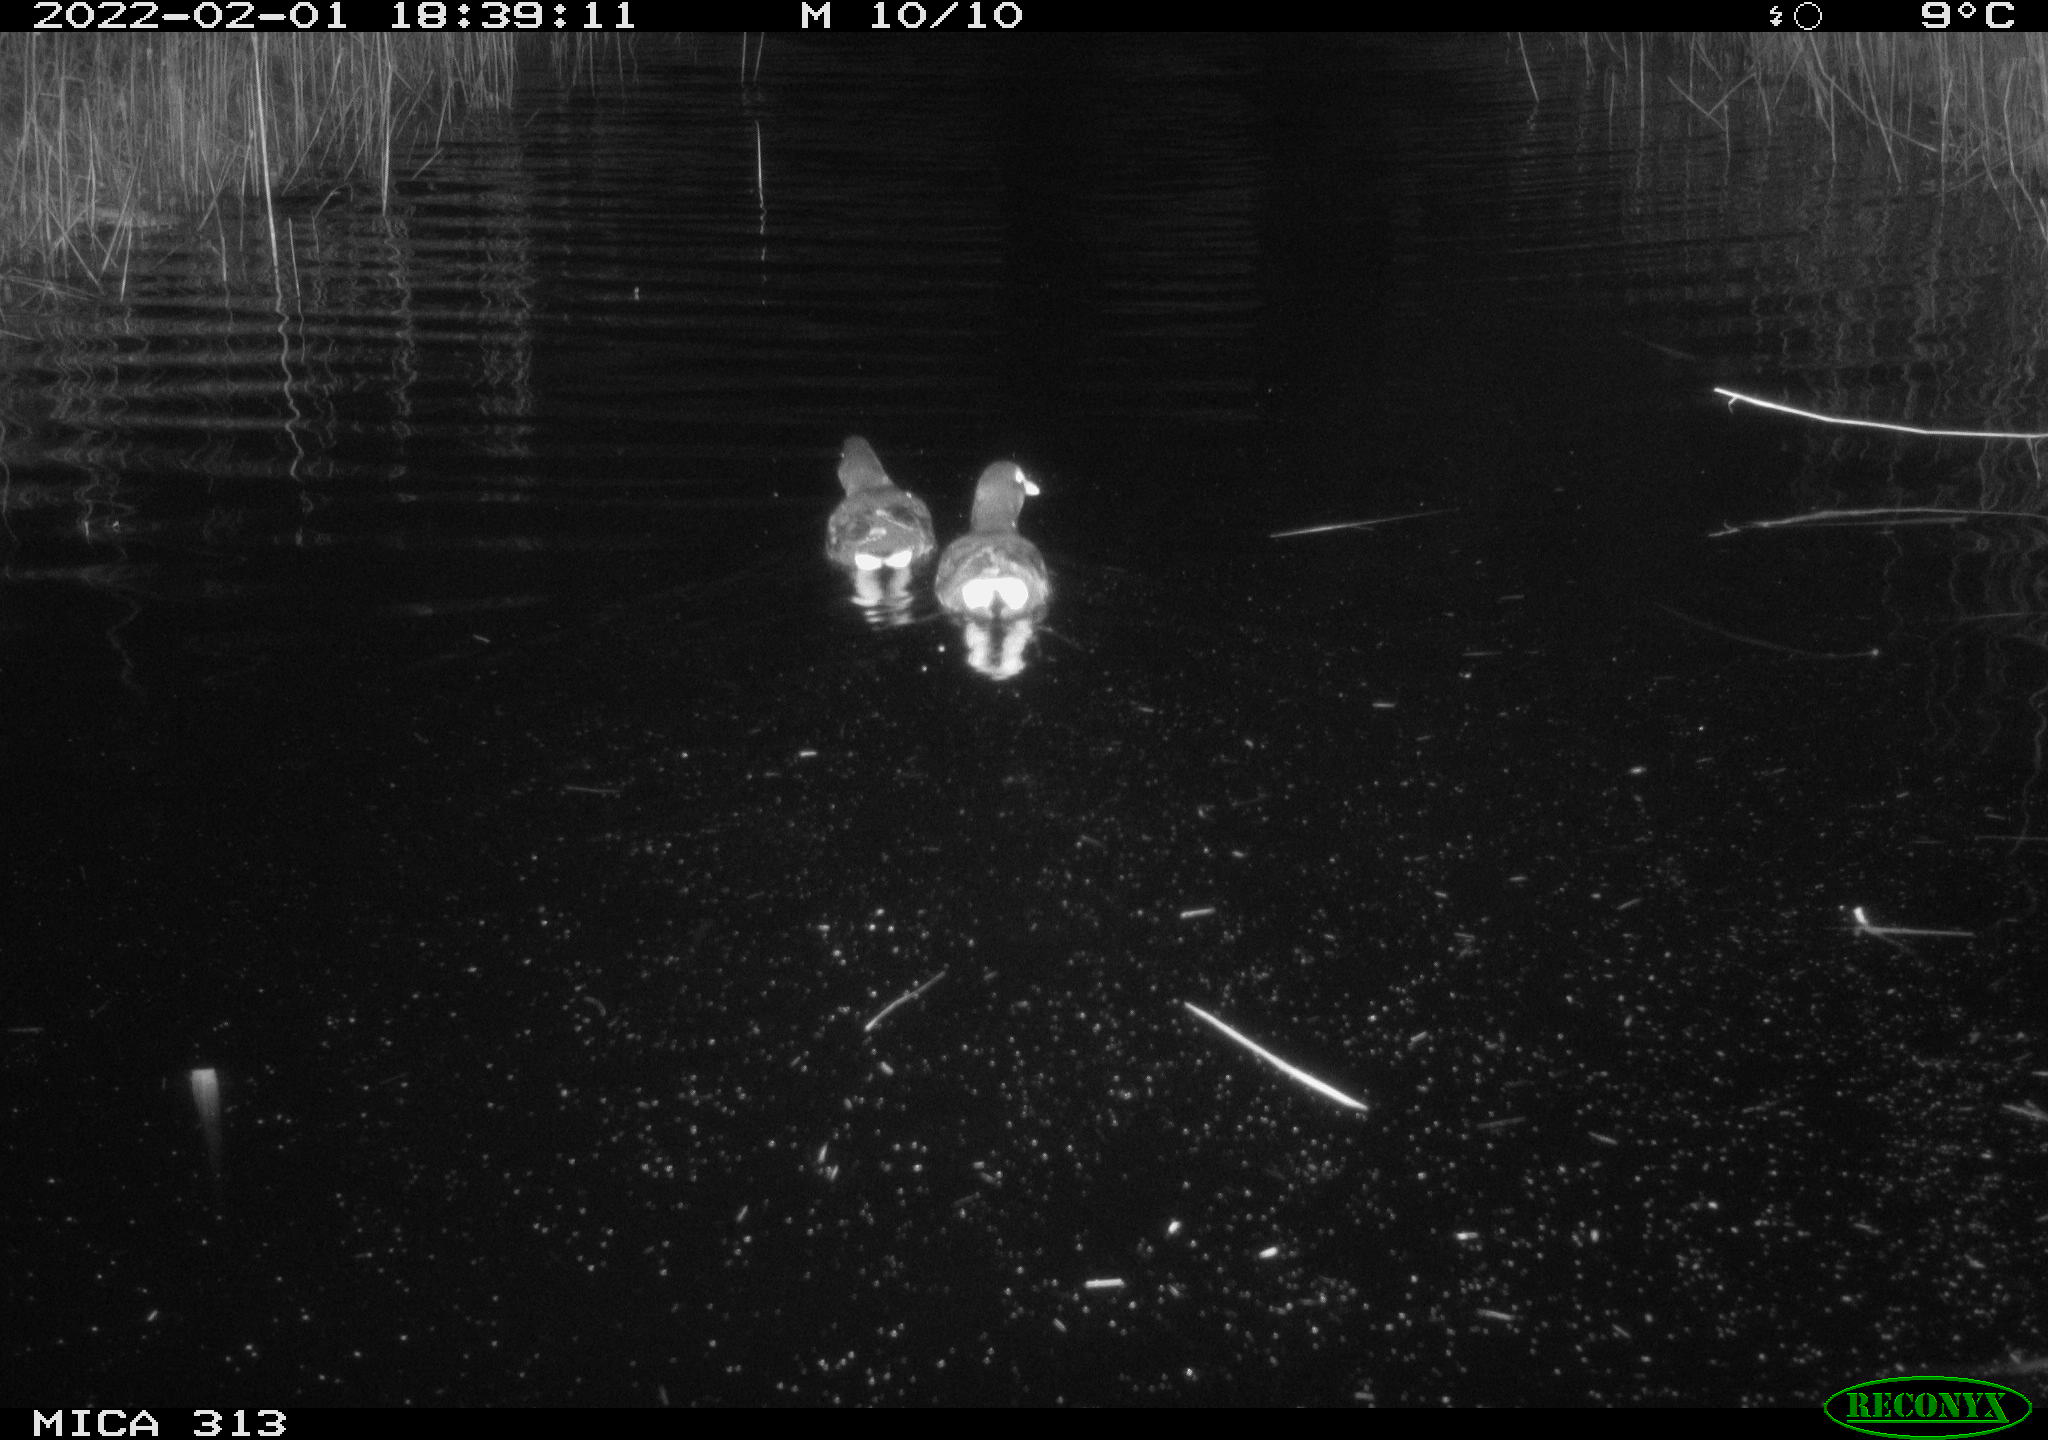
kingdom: Animalia
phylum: Chordata
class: Aves
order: Anseriformes
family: Anatidae
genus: Anas
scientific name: Anas platyrhynchos
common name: Mallard
